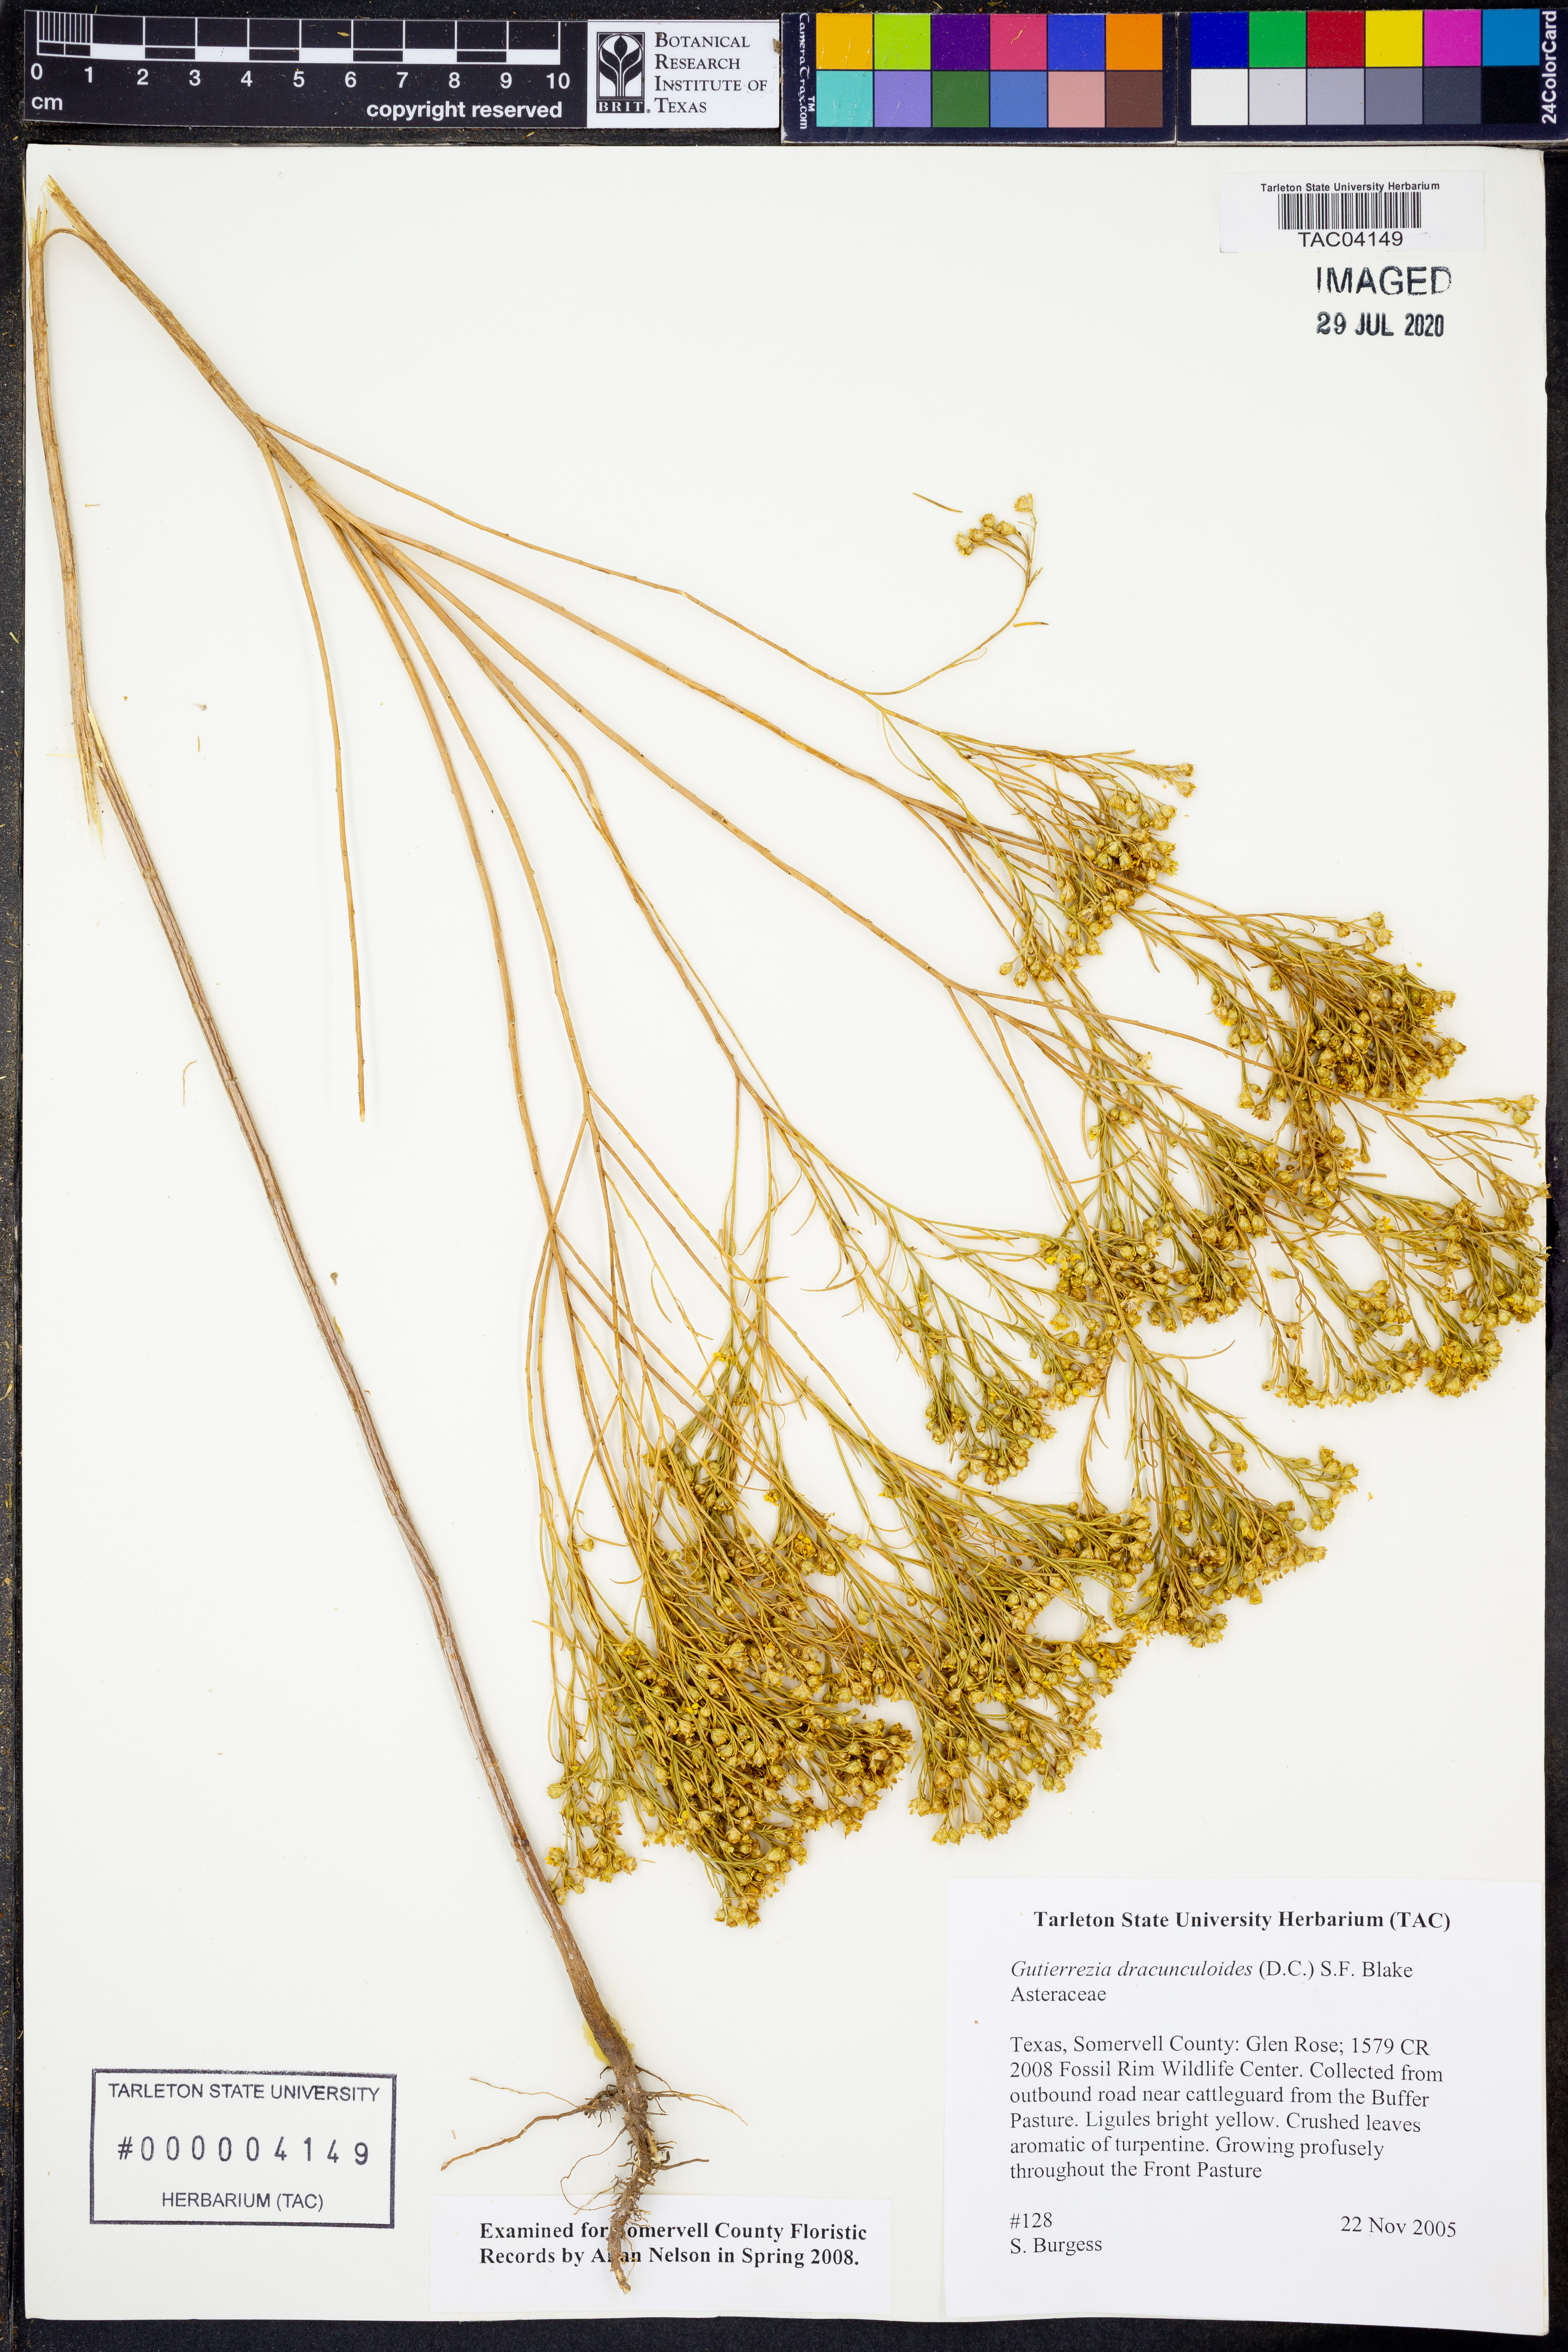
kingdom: Plantae
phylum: Tracheophyta
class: Magnoliopsida
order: Asterales
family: Asteraceae
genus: Amphiachyris
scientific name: Amphiachyris dracunculoides
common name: Broomweed
